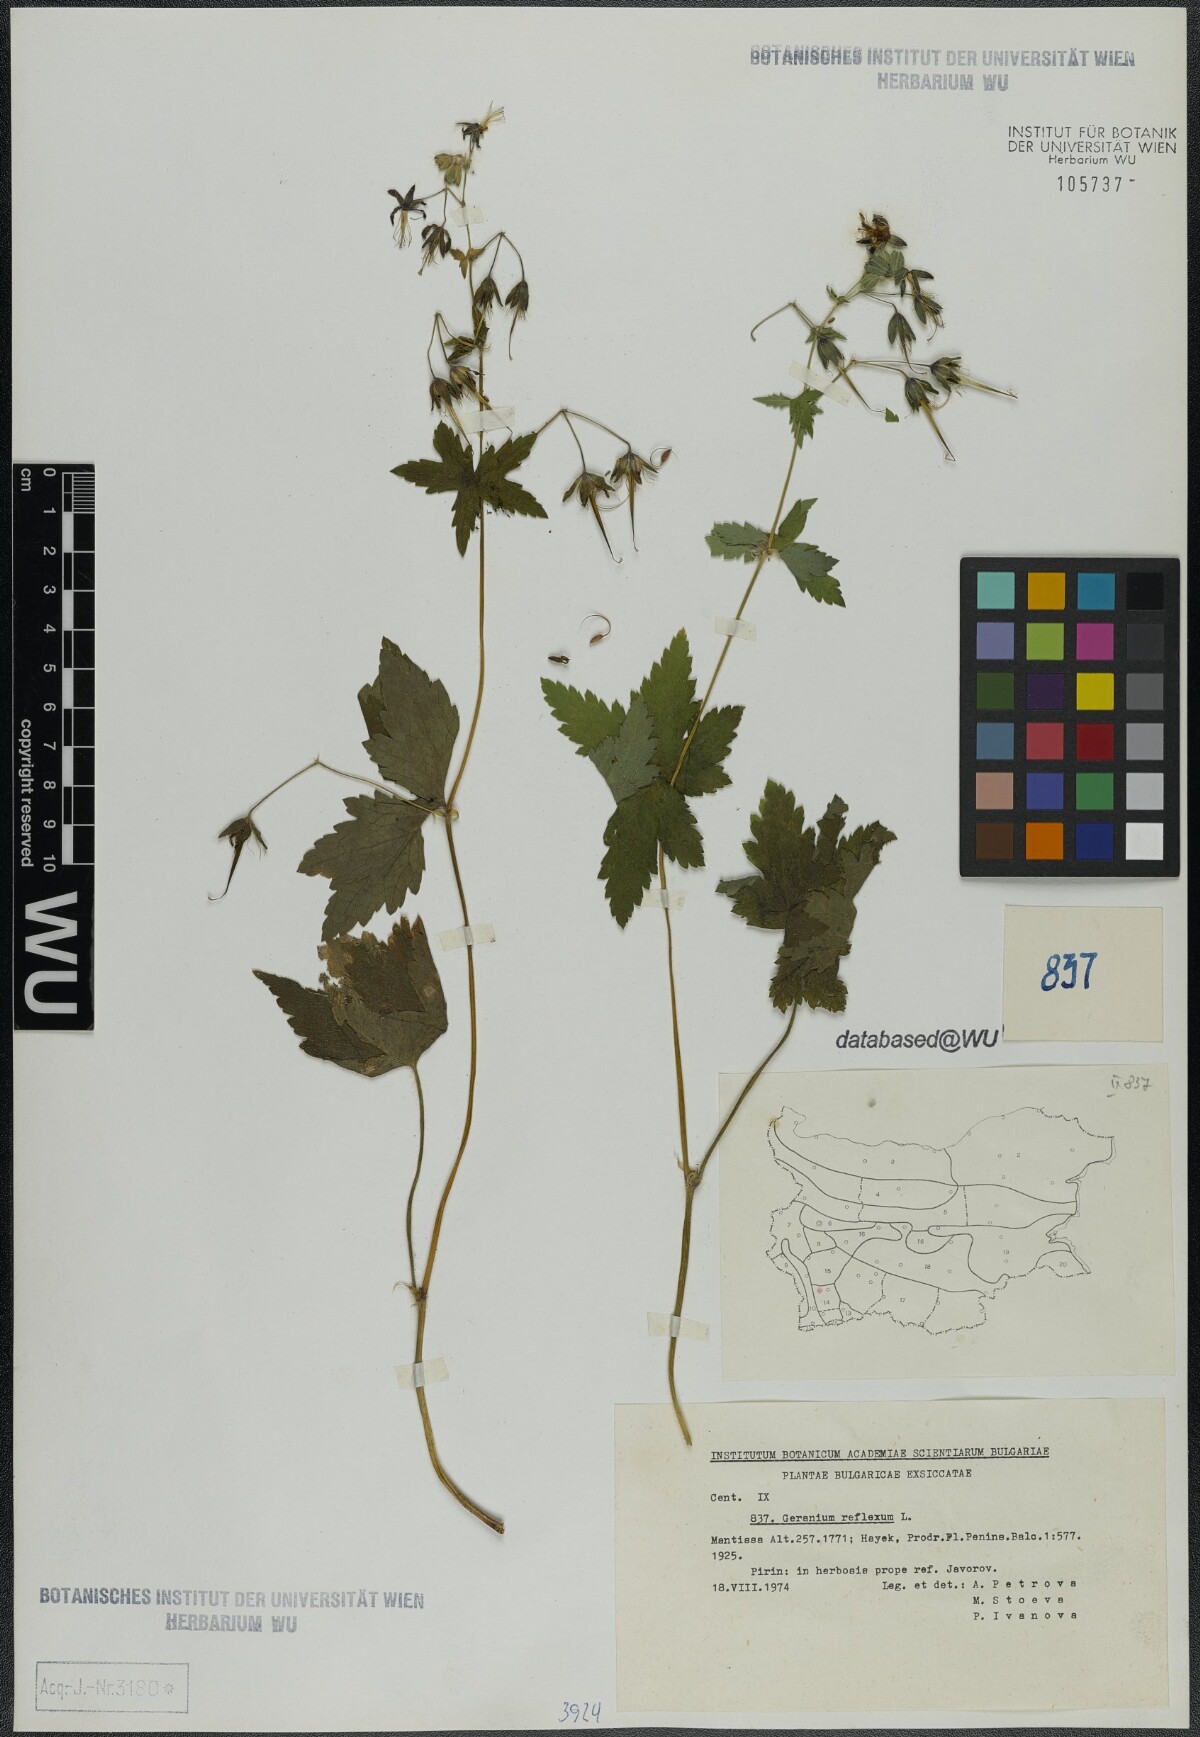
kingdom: Plantae
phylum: Tracheophyta
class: Magnoliopsida
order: Geraniales
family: Geraniaceae
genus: Geranium
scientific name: Geranium reflexum
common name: Reflexed crane's-bill
